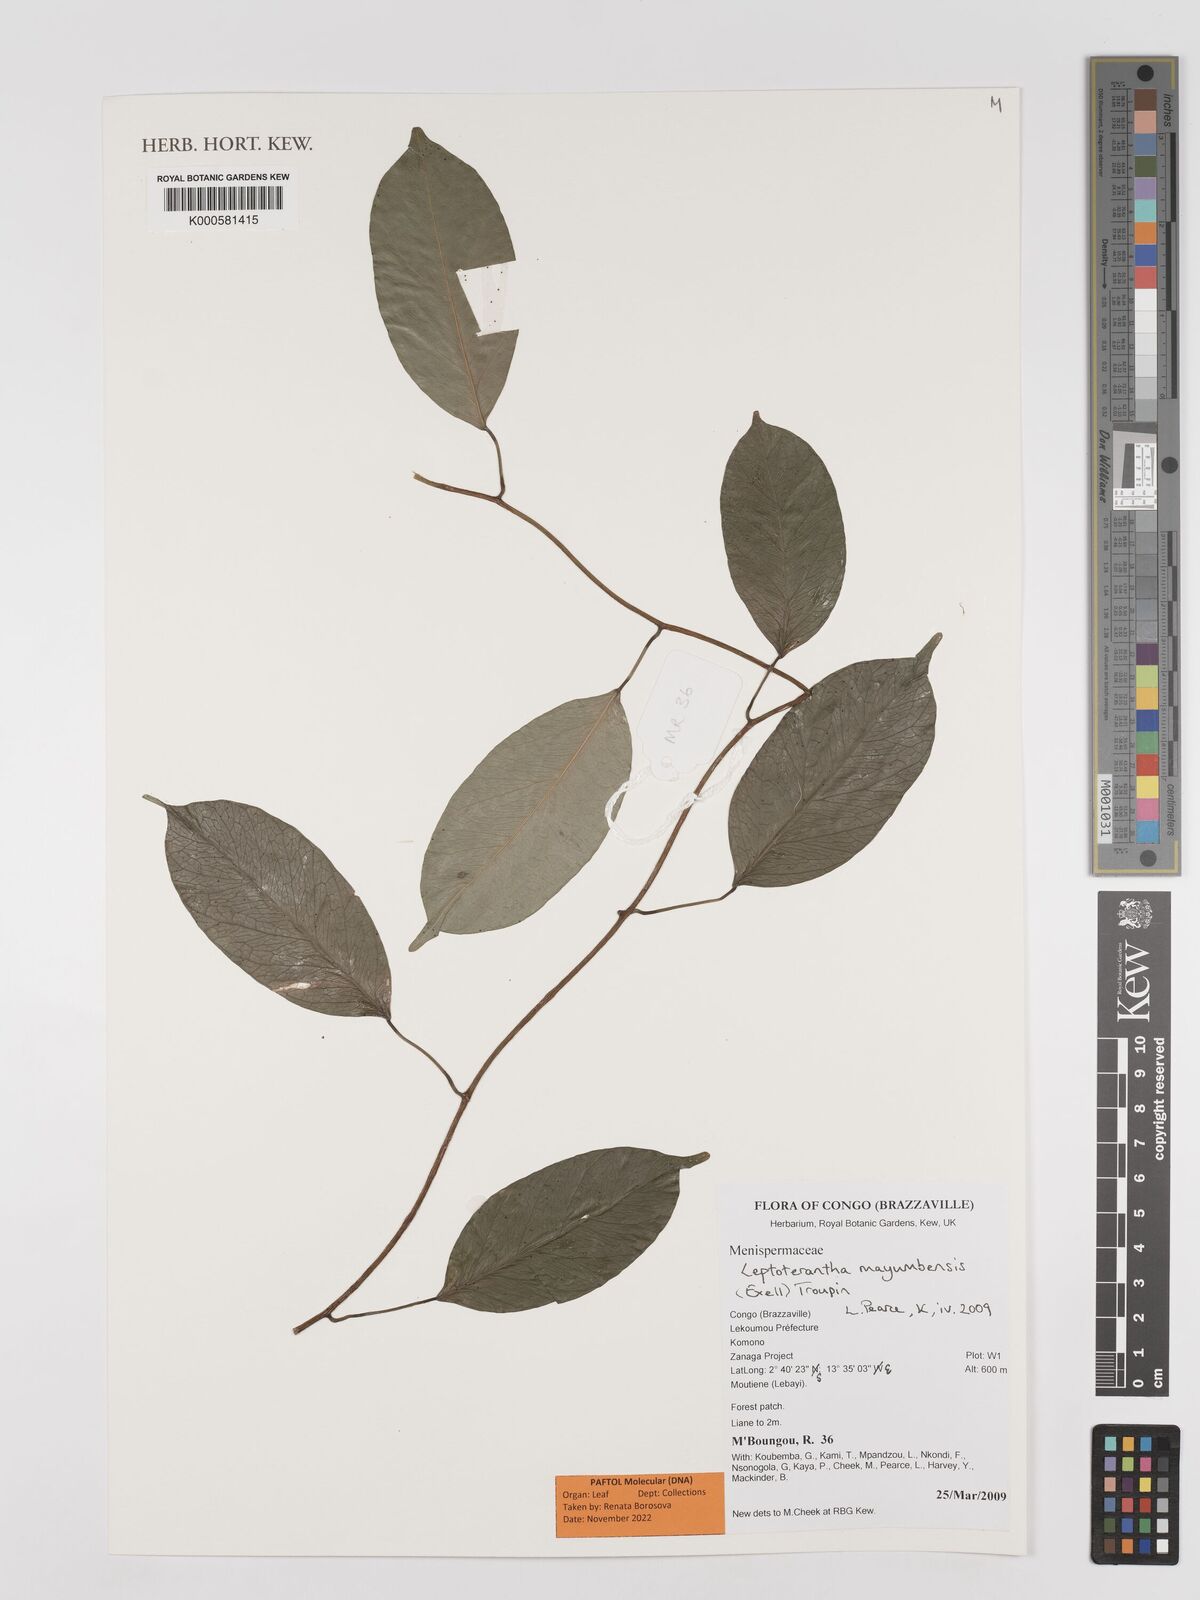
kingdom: Plantae
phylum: Tracheophyta
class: Magnoliopsida
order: Ranunculales
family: Menispermaceae
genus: Leptoterantha
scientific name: Leptoterantha mayumbensis
